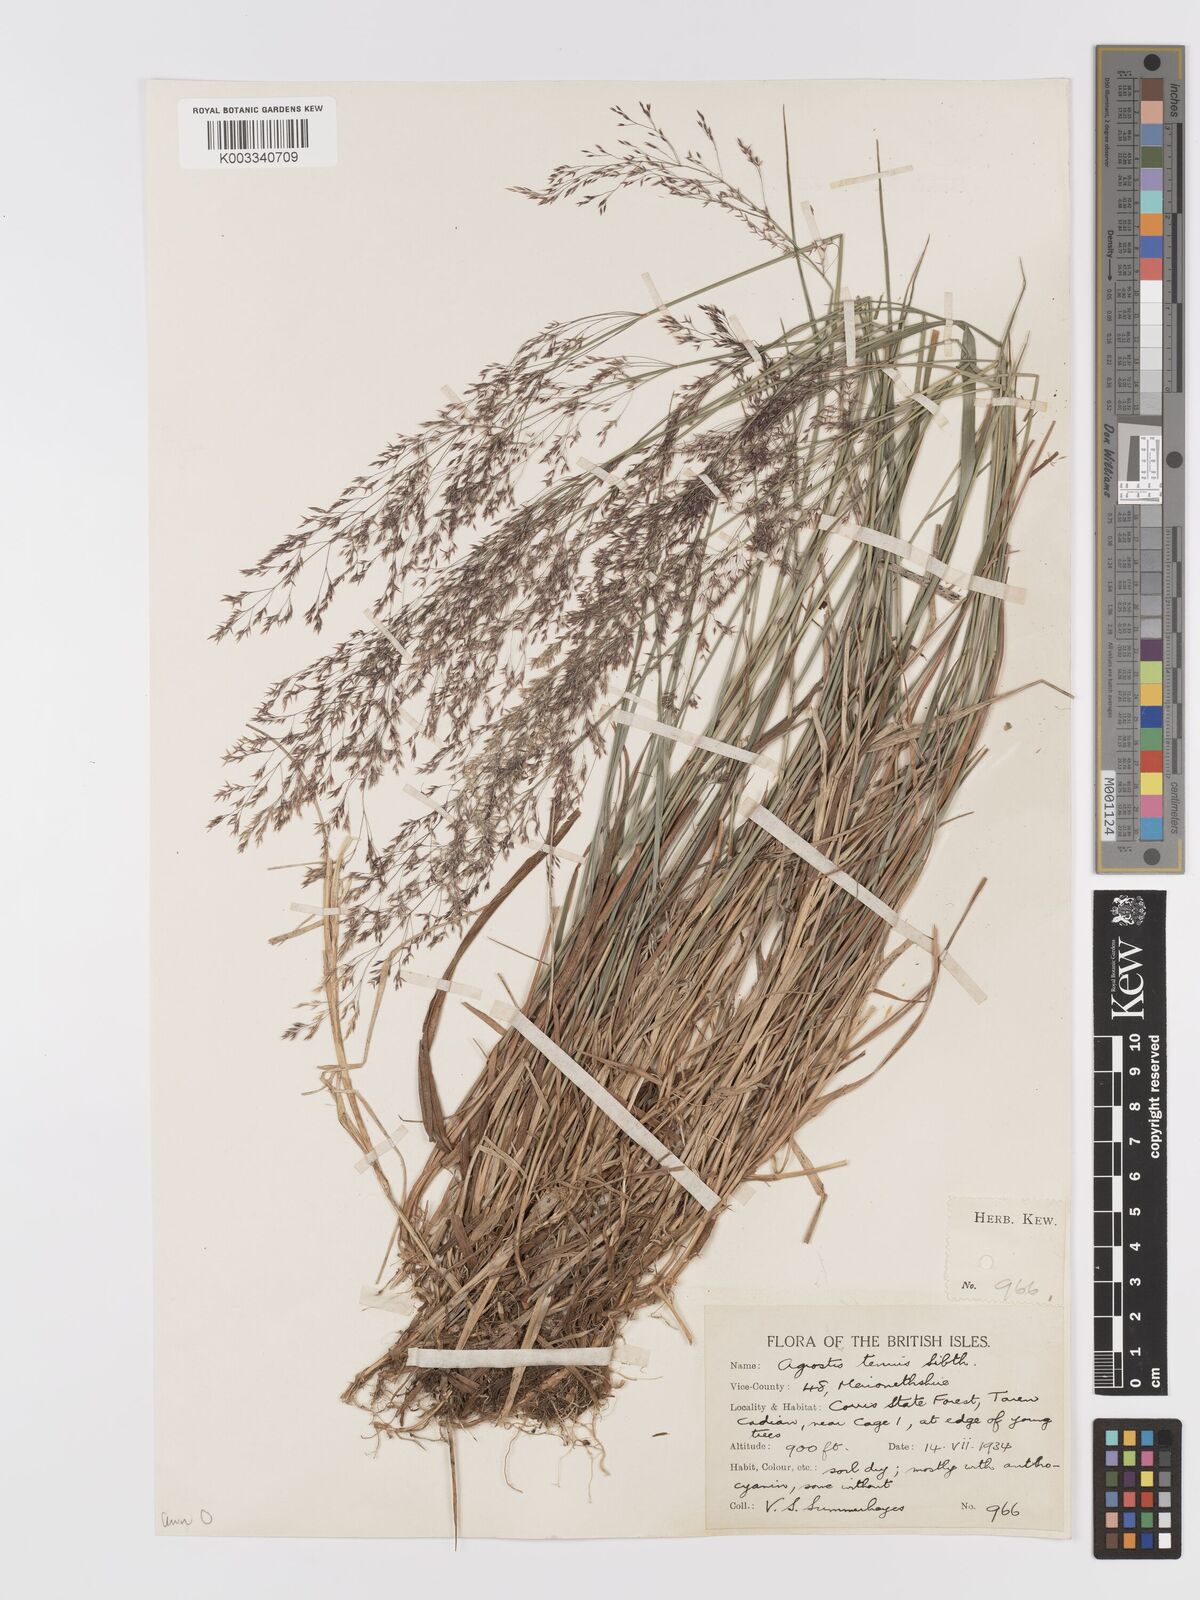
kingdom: Plantae
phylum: Tracheophyta
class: Liliopsida
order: Poales
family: Poaceae
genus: Agrostis
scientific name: Agrostis capillaris
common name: Colonial bentgrass
